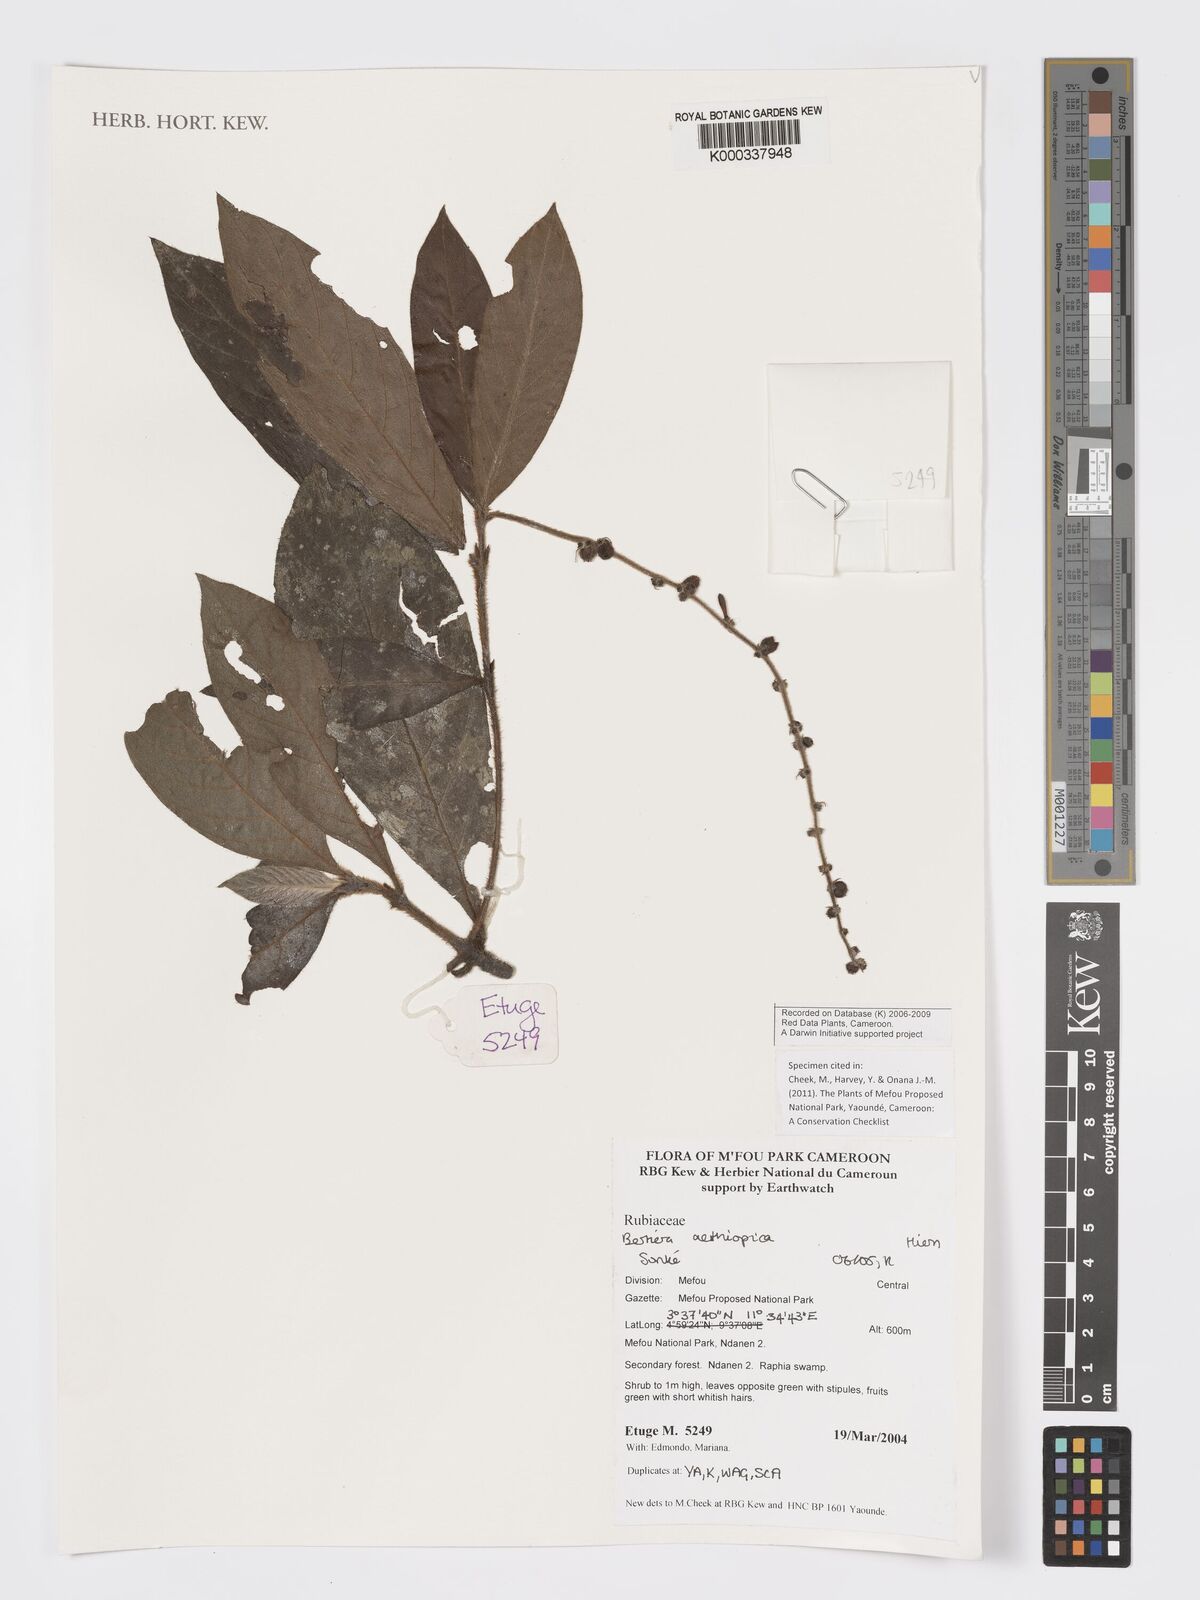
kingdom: Plantae
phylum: Tracheophyta
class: Magnoliopsida
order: Gentianales
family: Rubiaceae
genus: Bertiera
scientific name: Bertiera aethiopica
